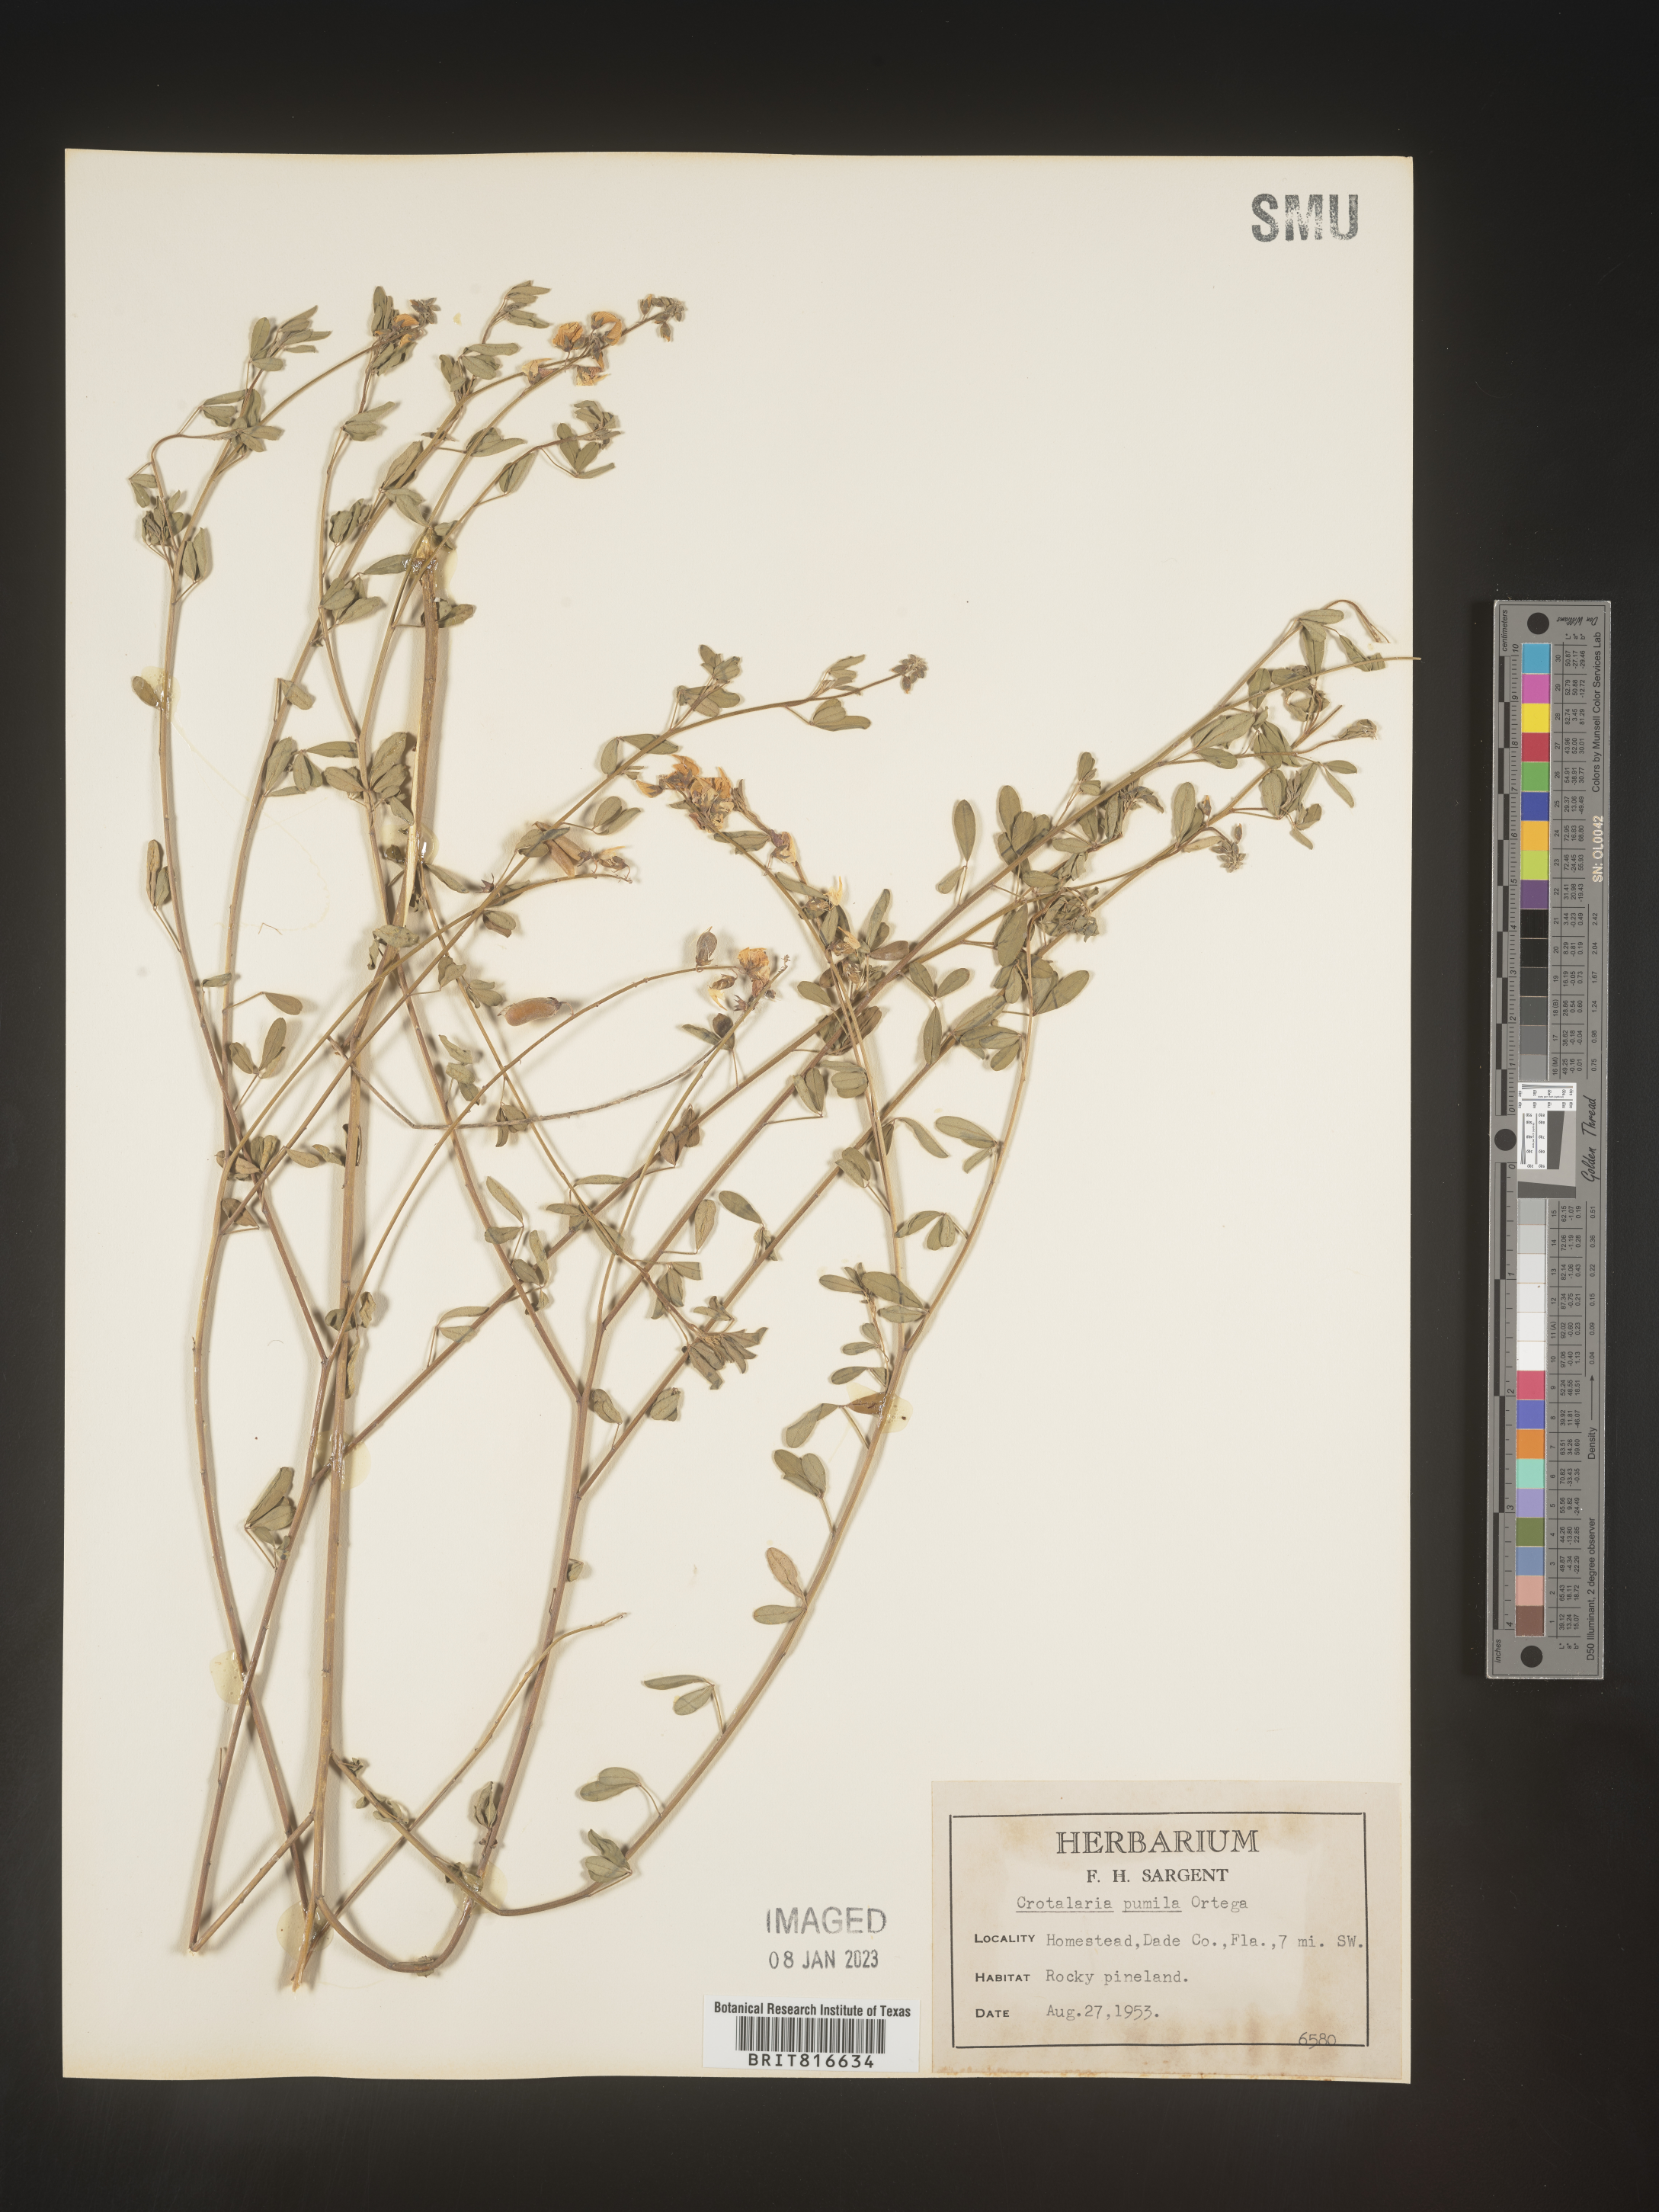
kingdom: Plantae
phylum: Tracheophyta
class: Magnoliopsida
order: Fabales
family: Fabaceae
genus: Crotalaria
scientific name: Crotalaria pumila
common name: Low rattlebox
